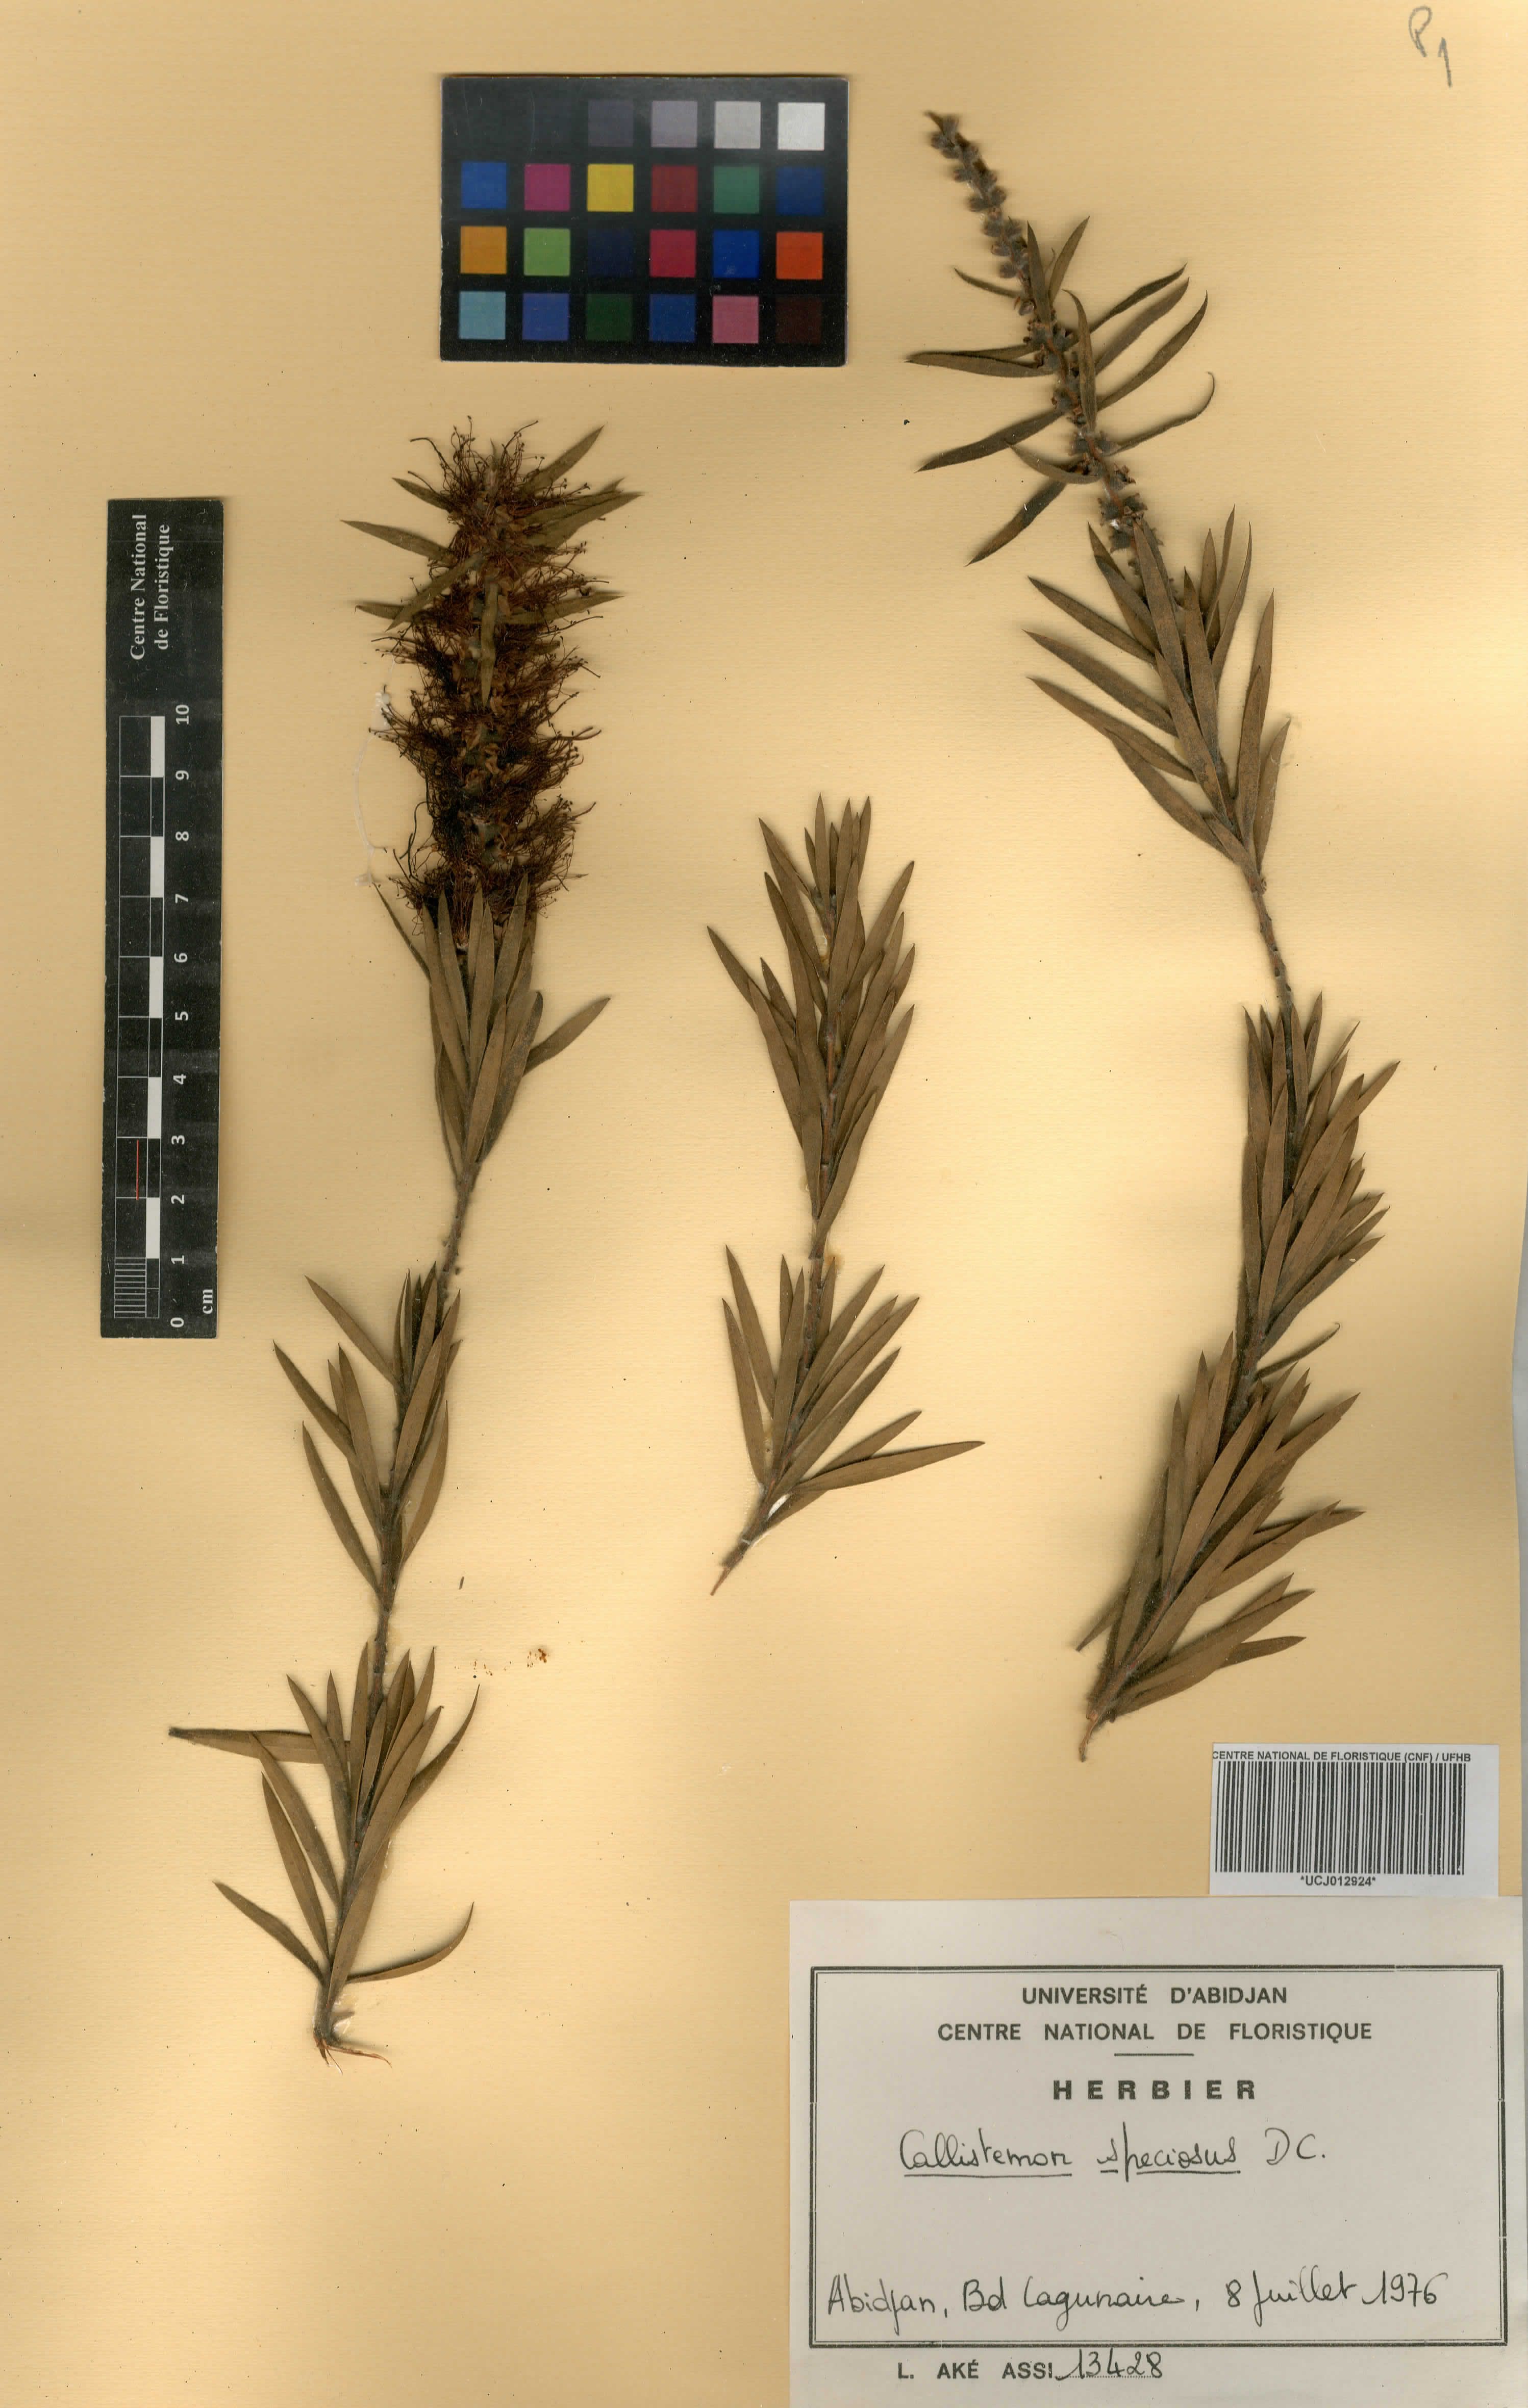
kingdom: Plantae
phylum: Tracheophyta
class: Magnoliopsida
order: Myrtales
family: Myrtaceae
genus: Callistemon
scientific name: Callistemon speciosus
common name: Albany bottlebrush
